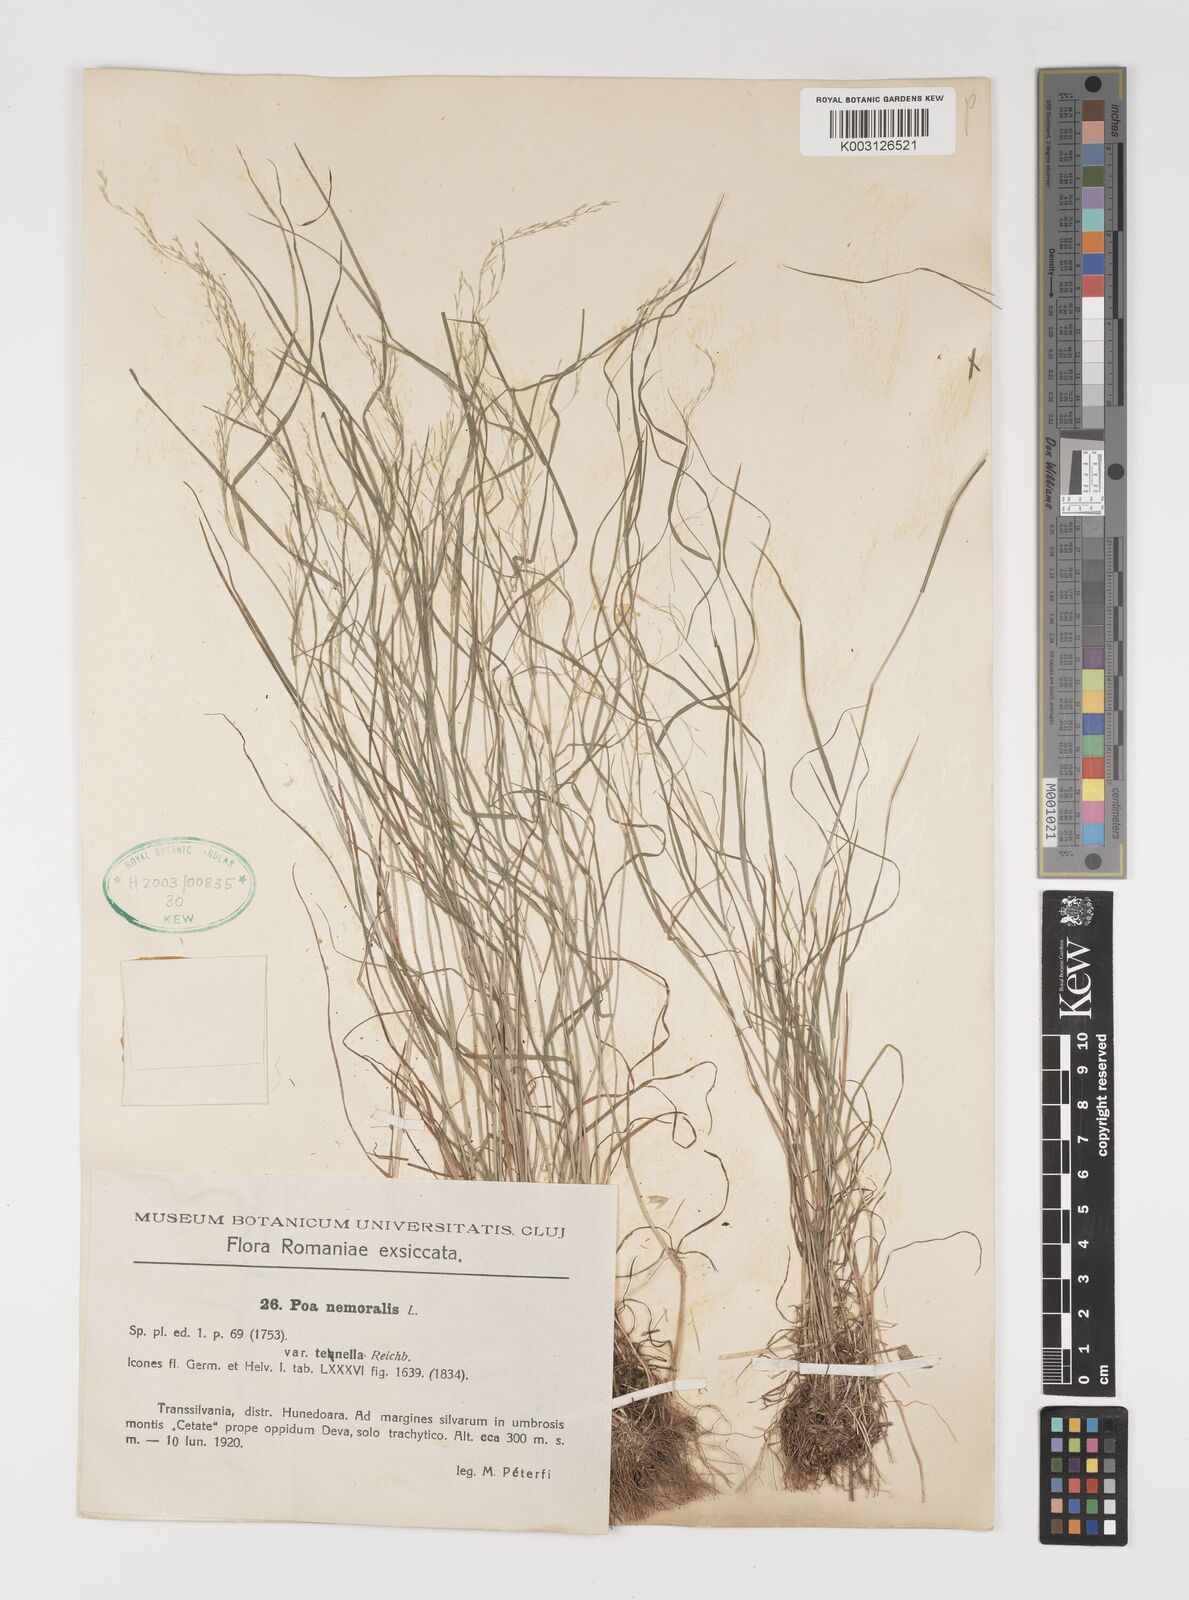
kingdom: Plantae
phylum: Tracheophyta
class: Liliopsida
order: Poales
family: Poaceae
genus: Poa
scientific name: Poa nemoralis
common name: Wood bluegrass
